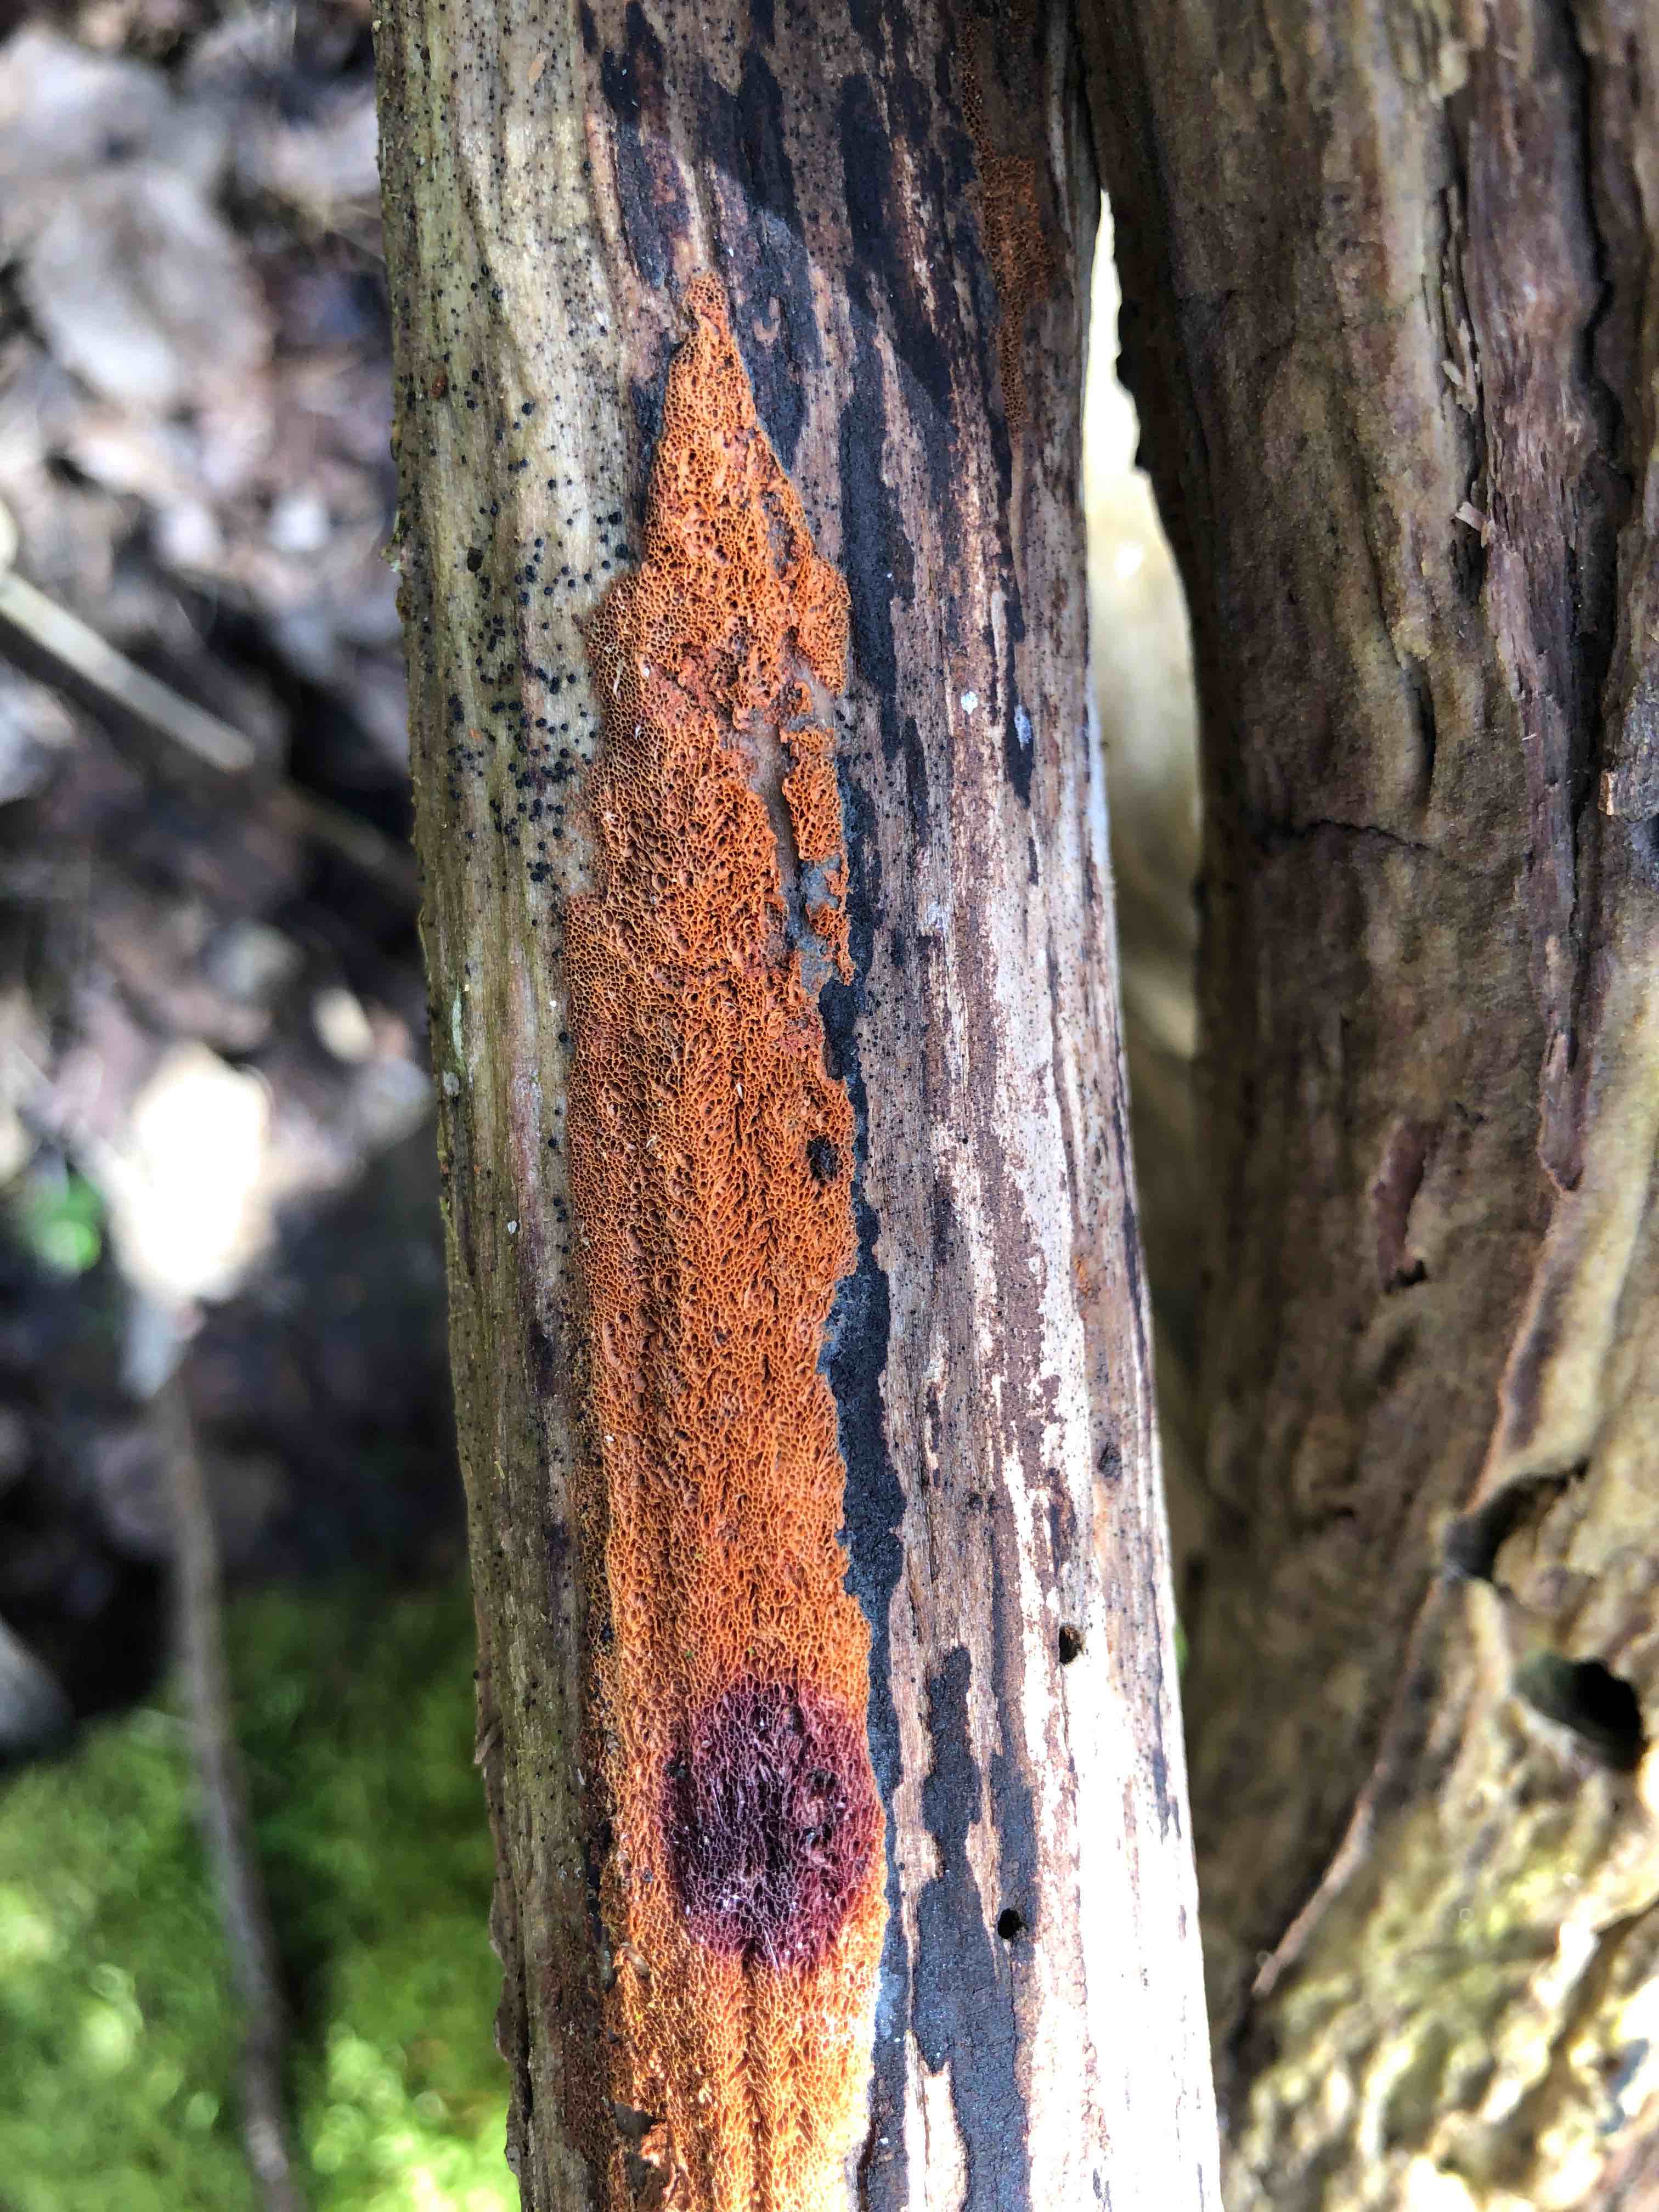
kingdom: Fungi
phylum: Basidiomycota
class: Agaricomycetes
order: Polyporales
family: Irpicaceae
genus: Ceriporia
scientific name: Ceriporia purpurea
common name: purpur-voksporesvamp
